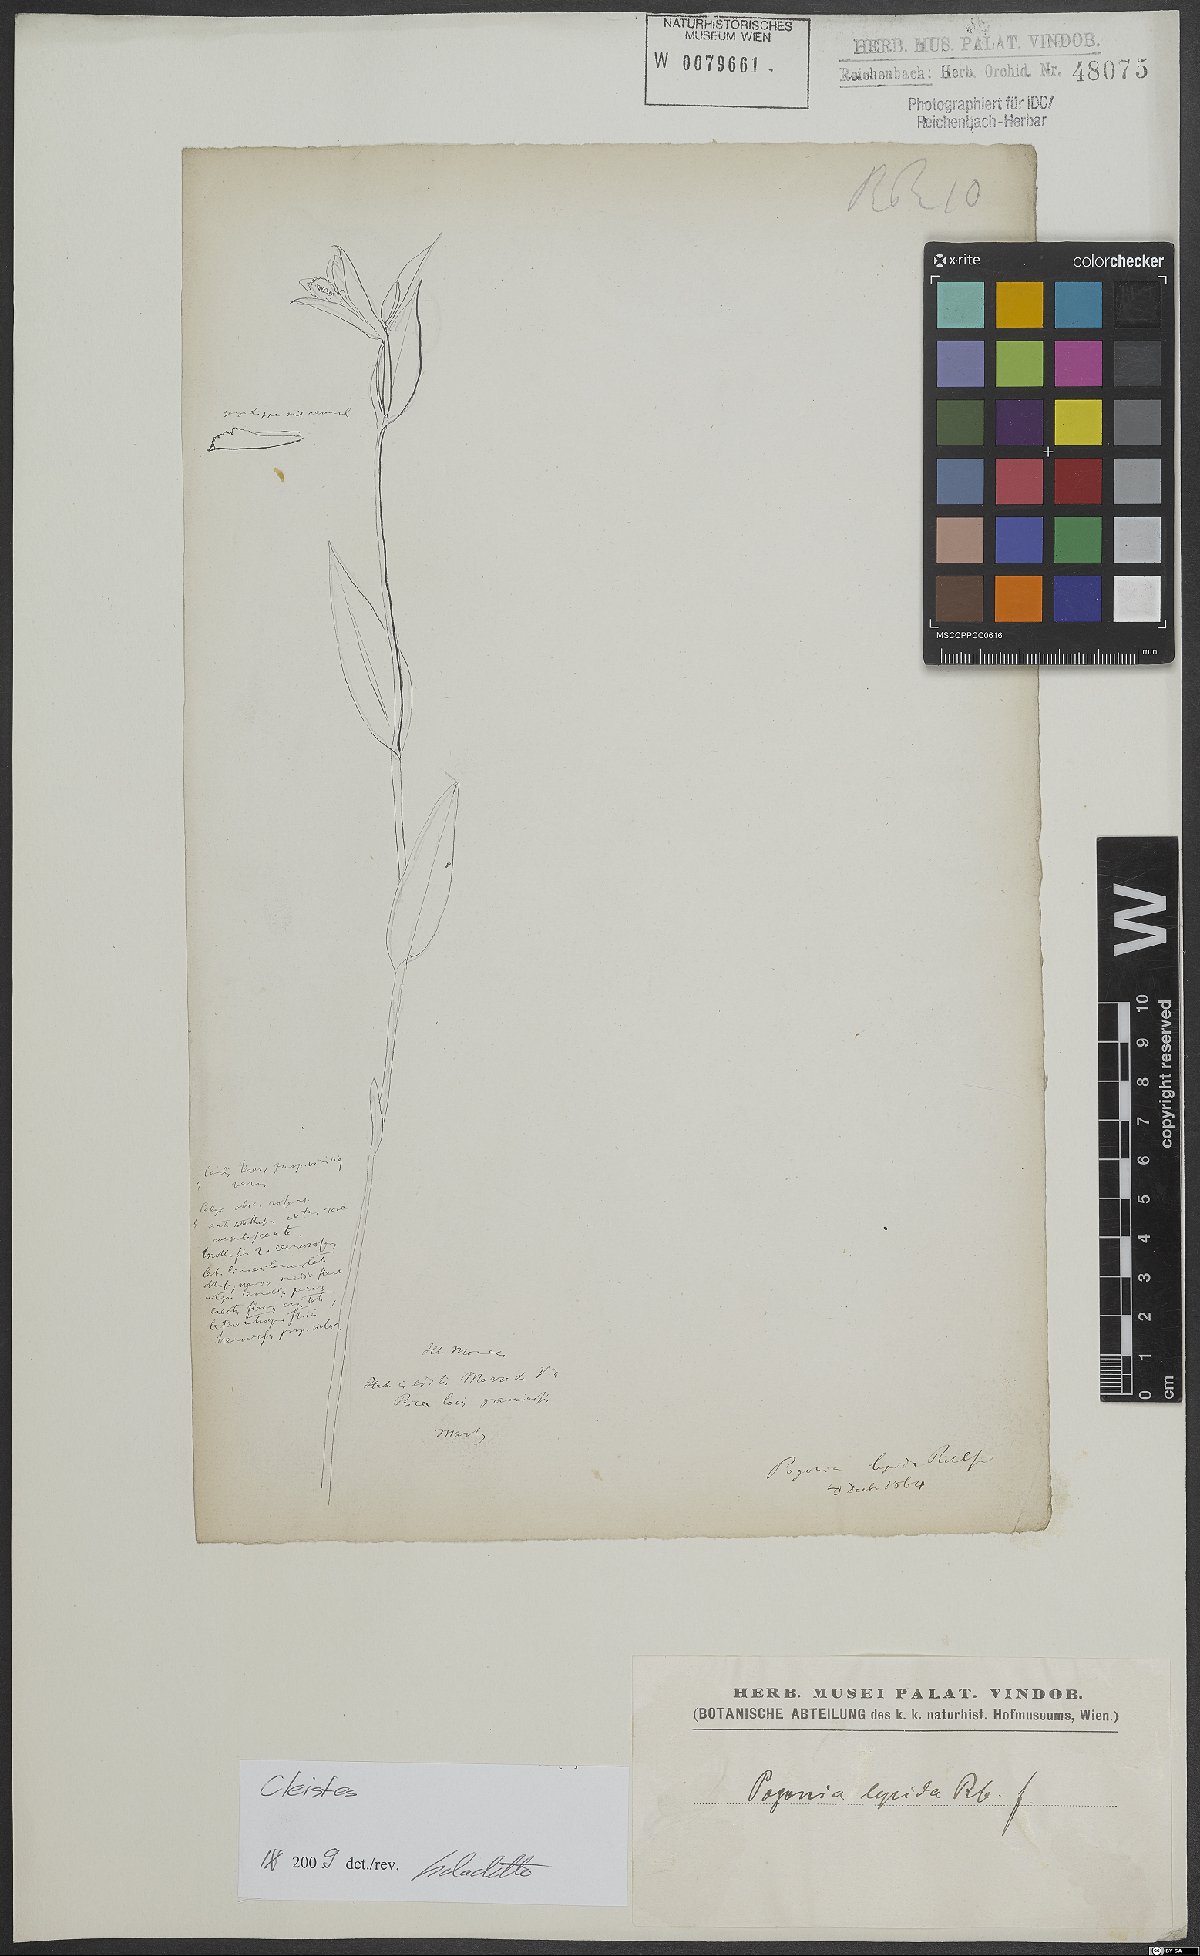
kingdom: Plantae
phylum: Tracheophyta
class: Liliopsida
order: Asparagales
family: Orchidaceae
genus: Cleistes
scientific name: Cleistes
